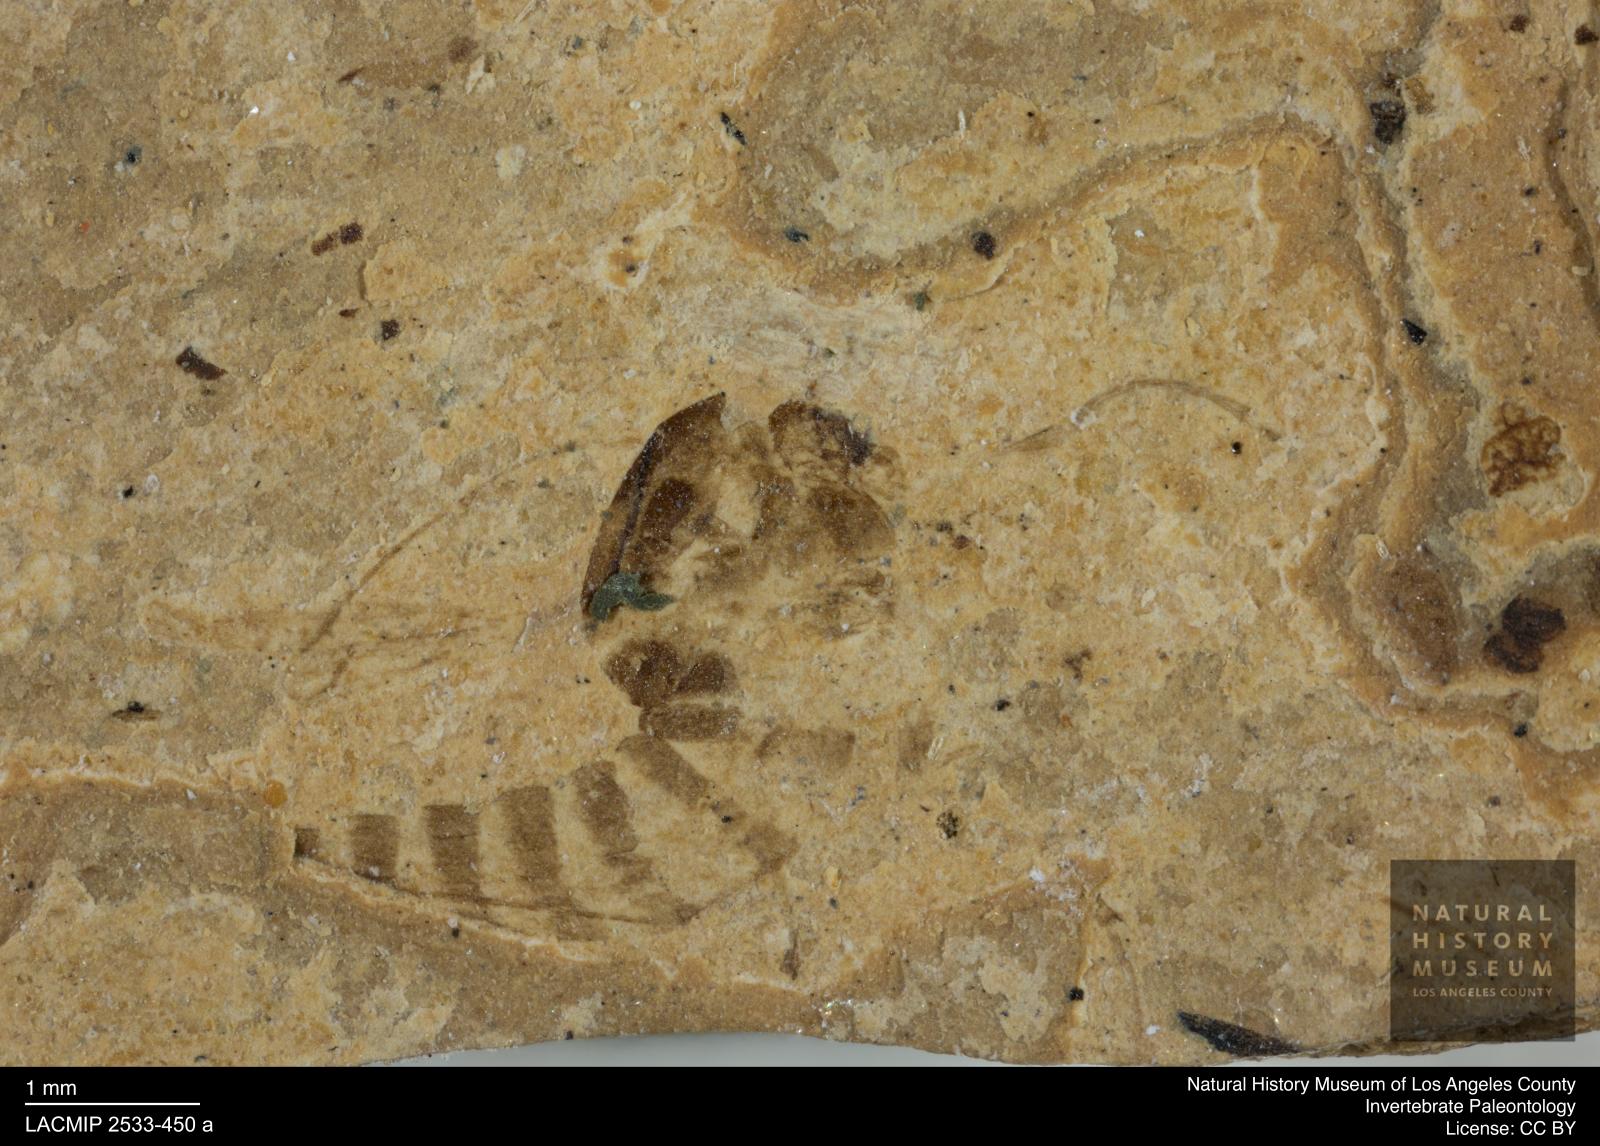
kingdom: Animalia
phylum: Arthropoda
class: Insecta
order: Diptera
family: Chironomidae
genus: Tanypus
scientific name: Tanypus thienemanni
